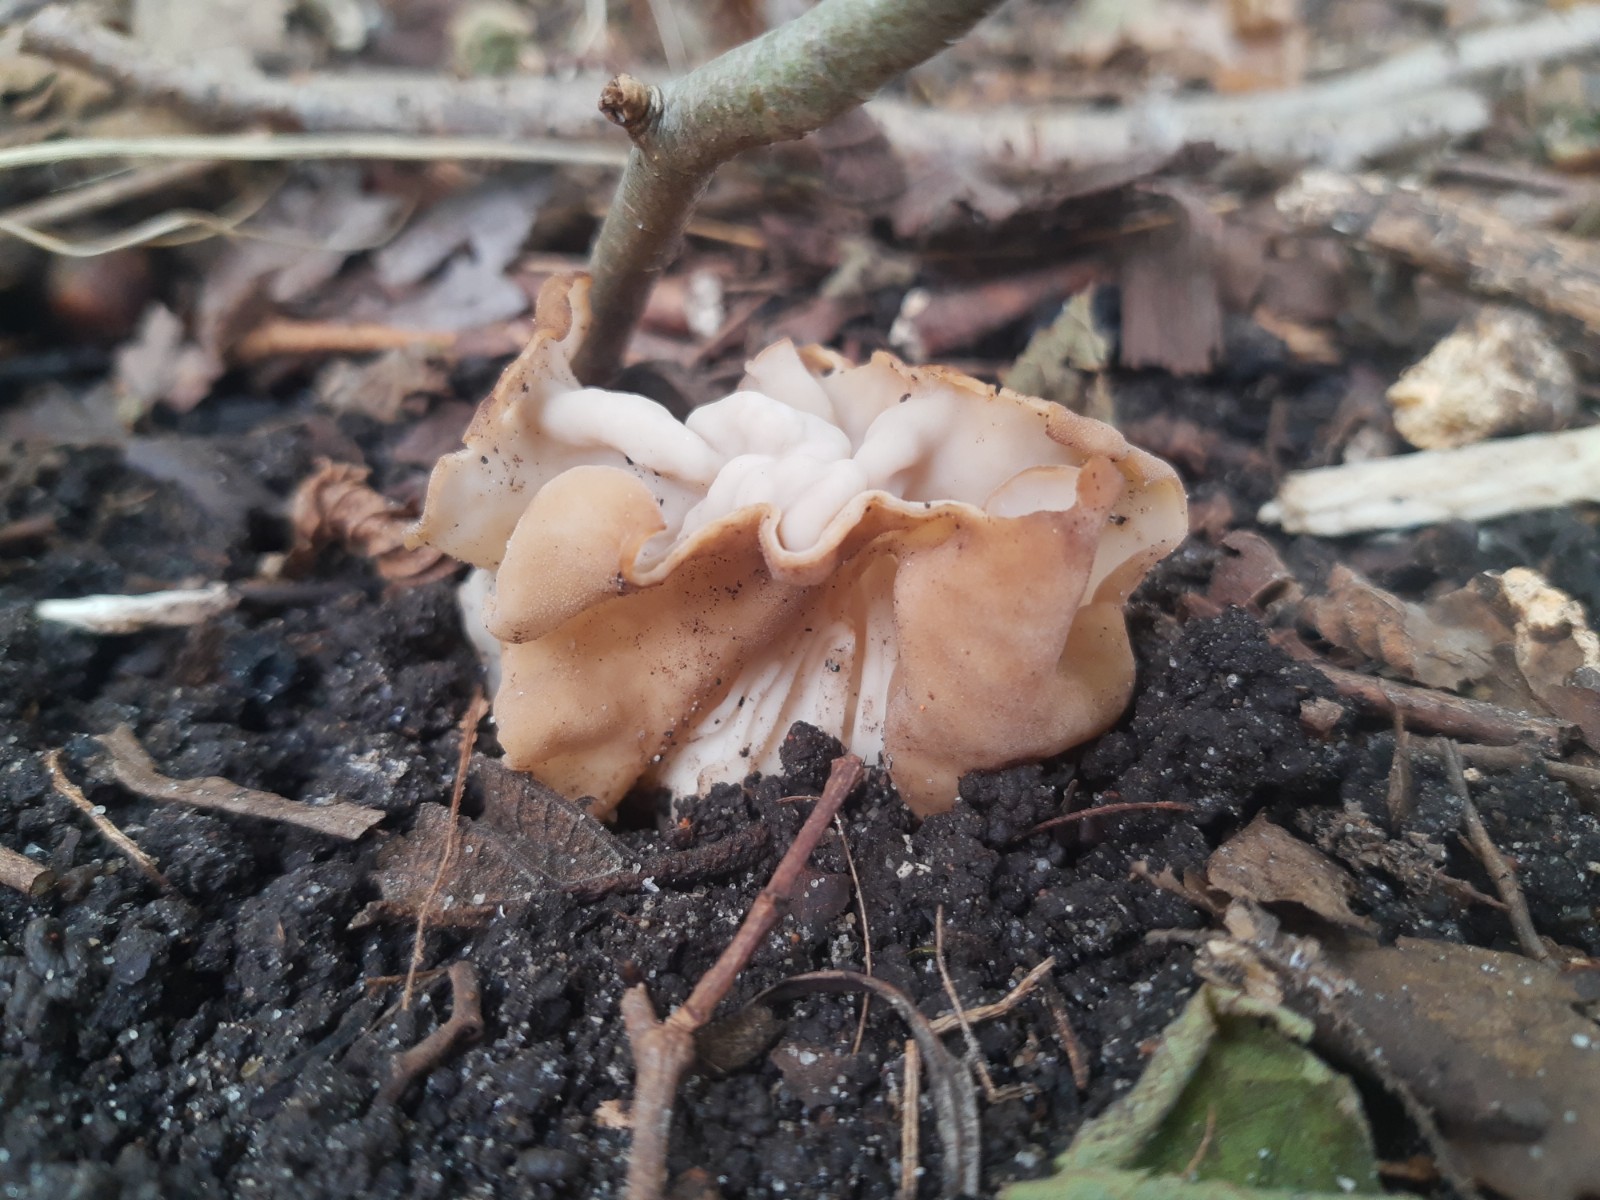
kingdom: Fungi
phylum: Ascomycota
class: Pezizomycetes
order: Pezizales
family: Helvellaceae
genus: Helvella
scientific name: Helvella crispa
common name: kruset foldhat
